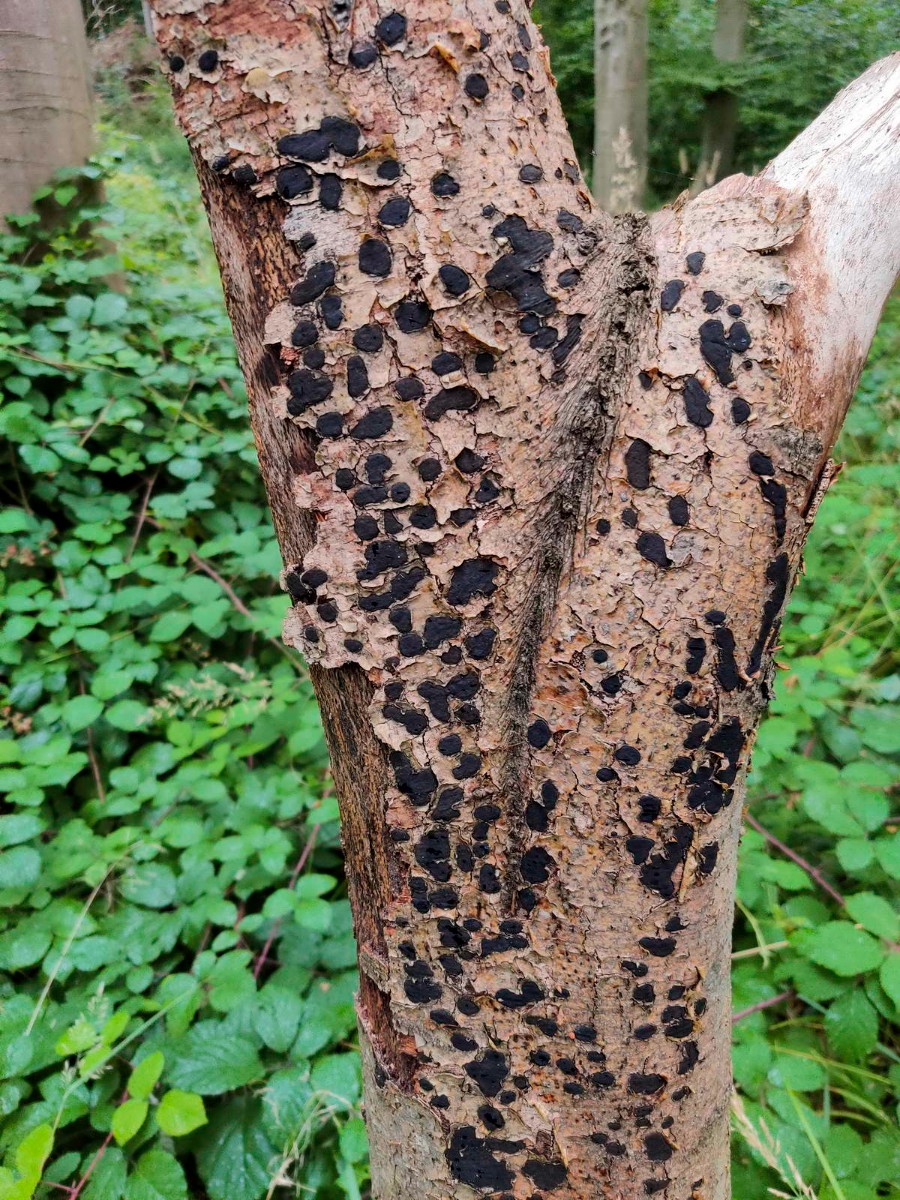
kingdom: Fungi
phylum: Ascomycota
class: Sordariomycetes
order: Xylariales
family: Graphostromataceae
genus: Biscogniauxia
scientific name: Biscogniauxia nummularia
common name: bøge-kulskive
